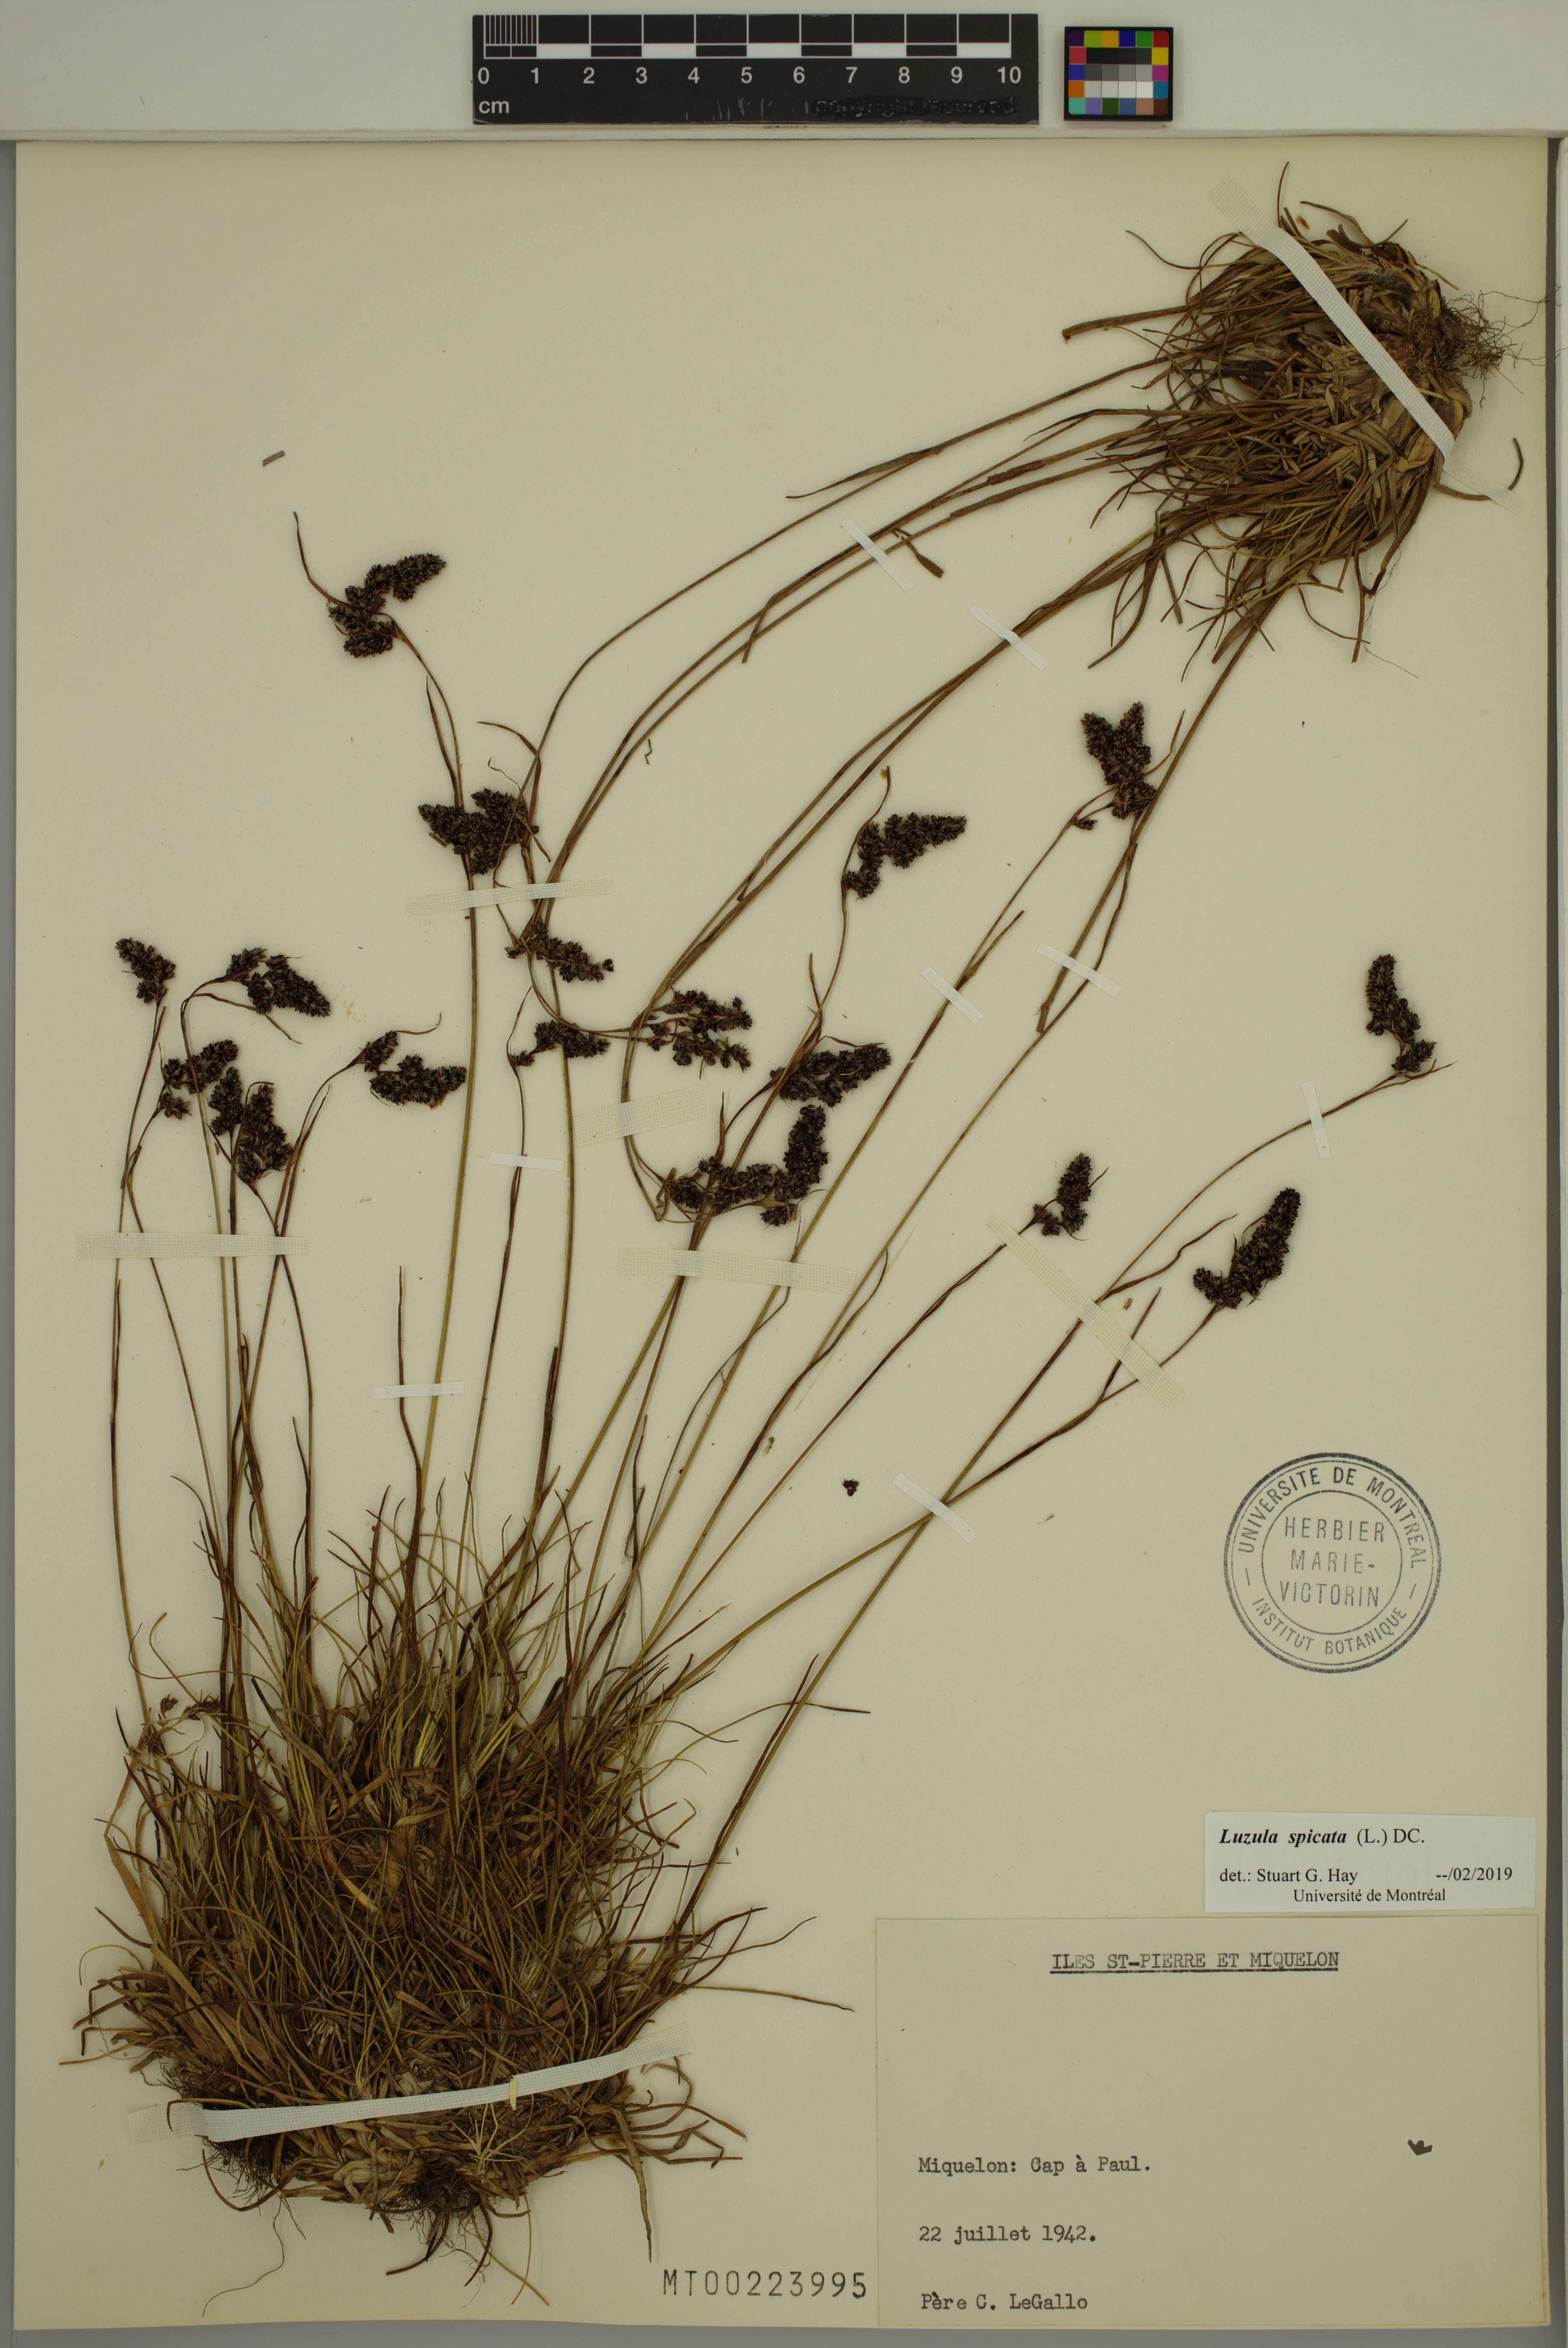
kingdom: Plantae
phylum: Tracheophyta
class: Liliopsida
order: Poales
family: Juncaceae
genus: Luzula
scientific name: Luzula spicata
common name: Spiked wood-rush
